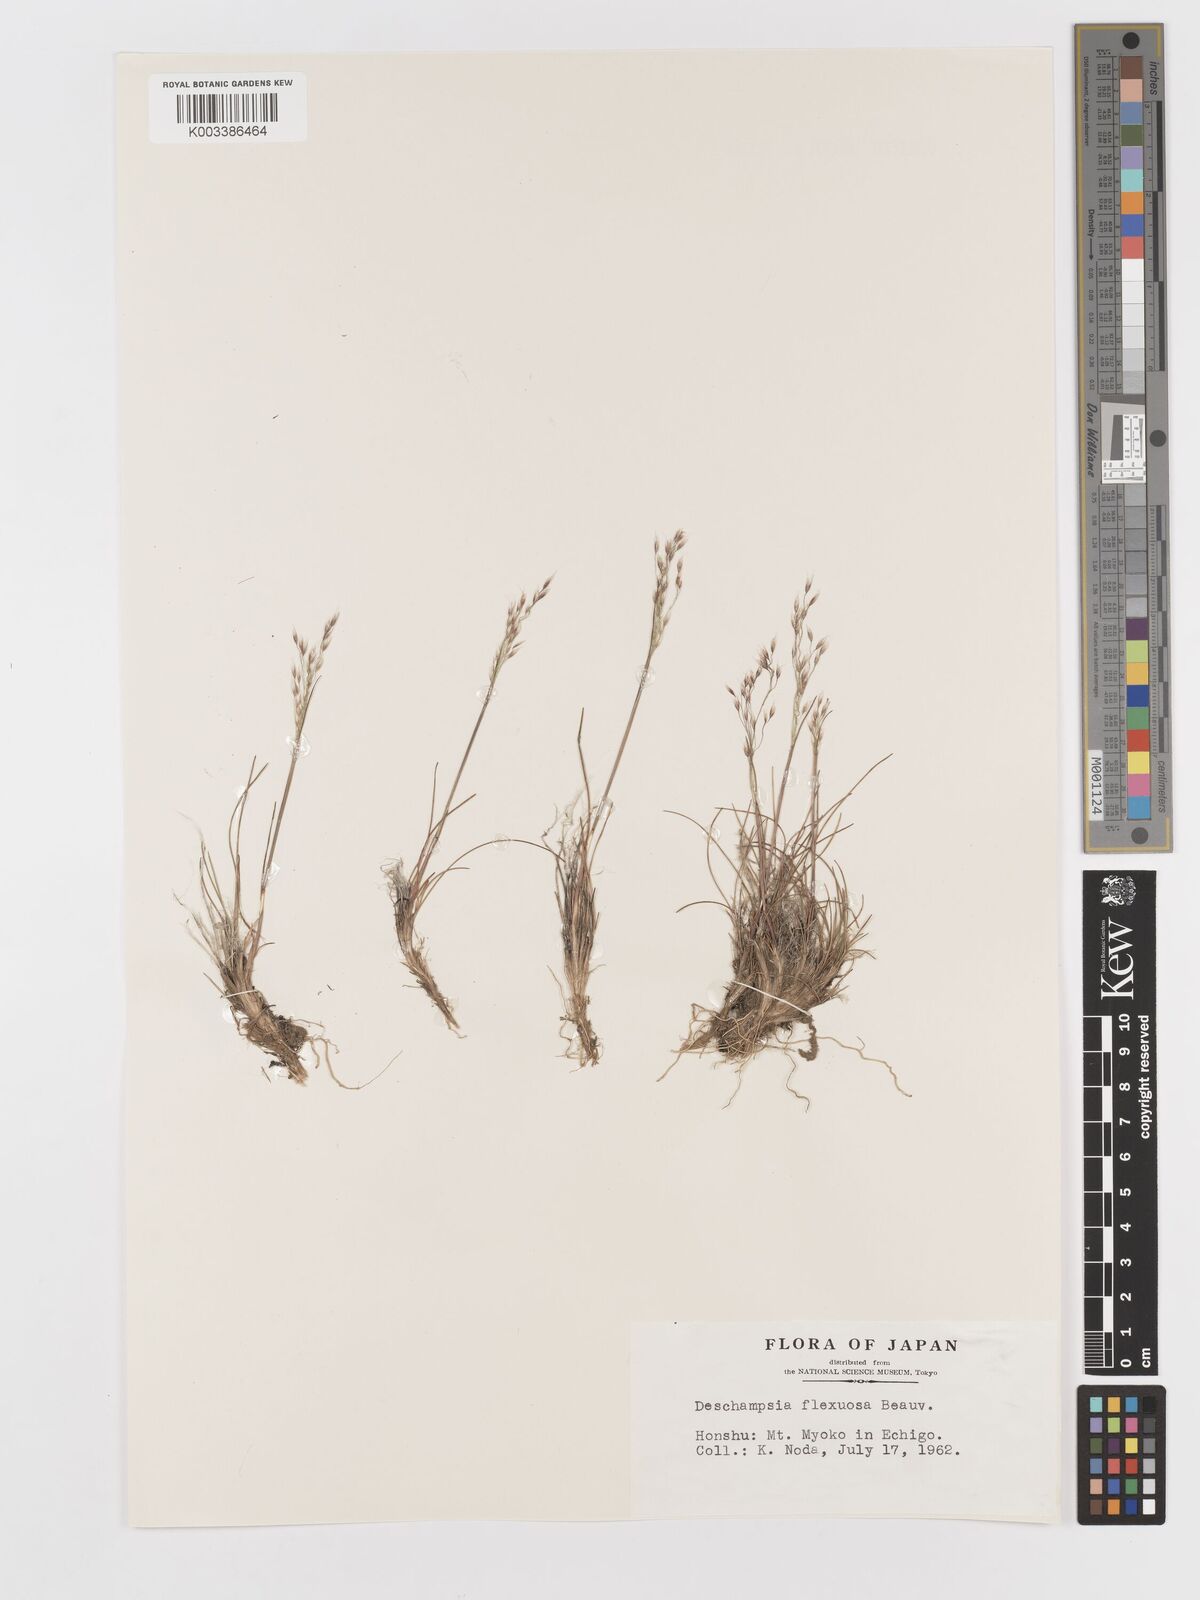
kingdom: Plantae
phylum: Tracheophyta
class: Liliopsida
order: Poales
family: Poaceae
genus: Avenella
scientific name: Avenella flexuosa
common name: Wavy hairgrass
